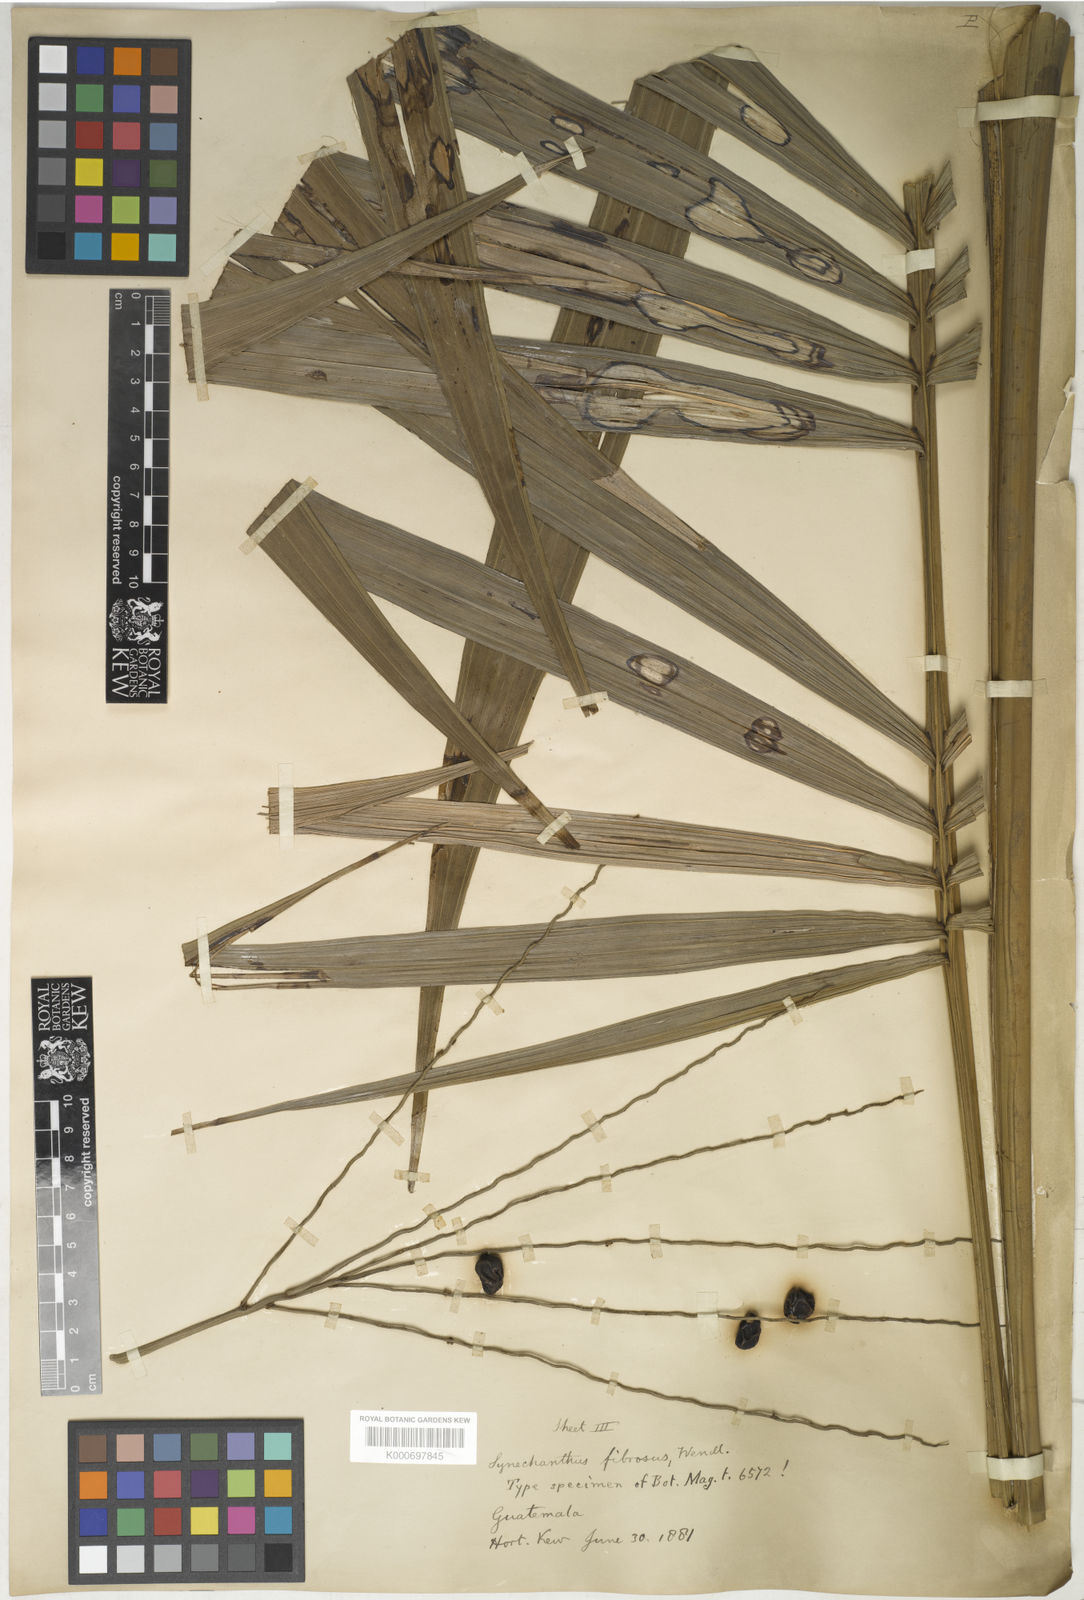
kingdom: Plantae
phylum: Tracheophyta
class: Liliopsida
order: Arecales
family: Arecaceae
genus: Synechanthus
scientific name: Synechanthus fibrosus
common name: Jellybean palm
